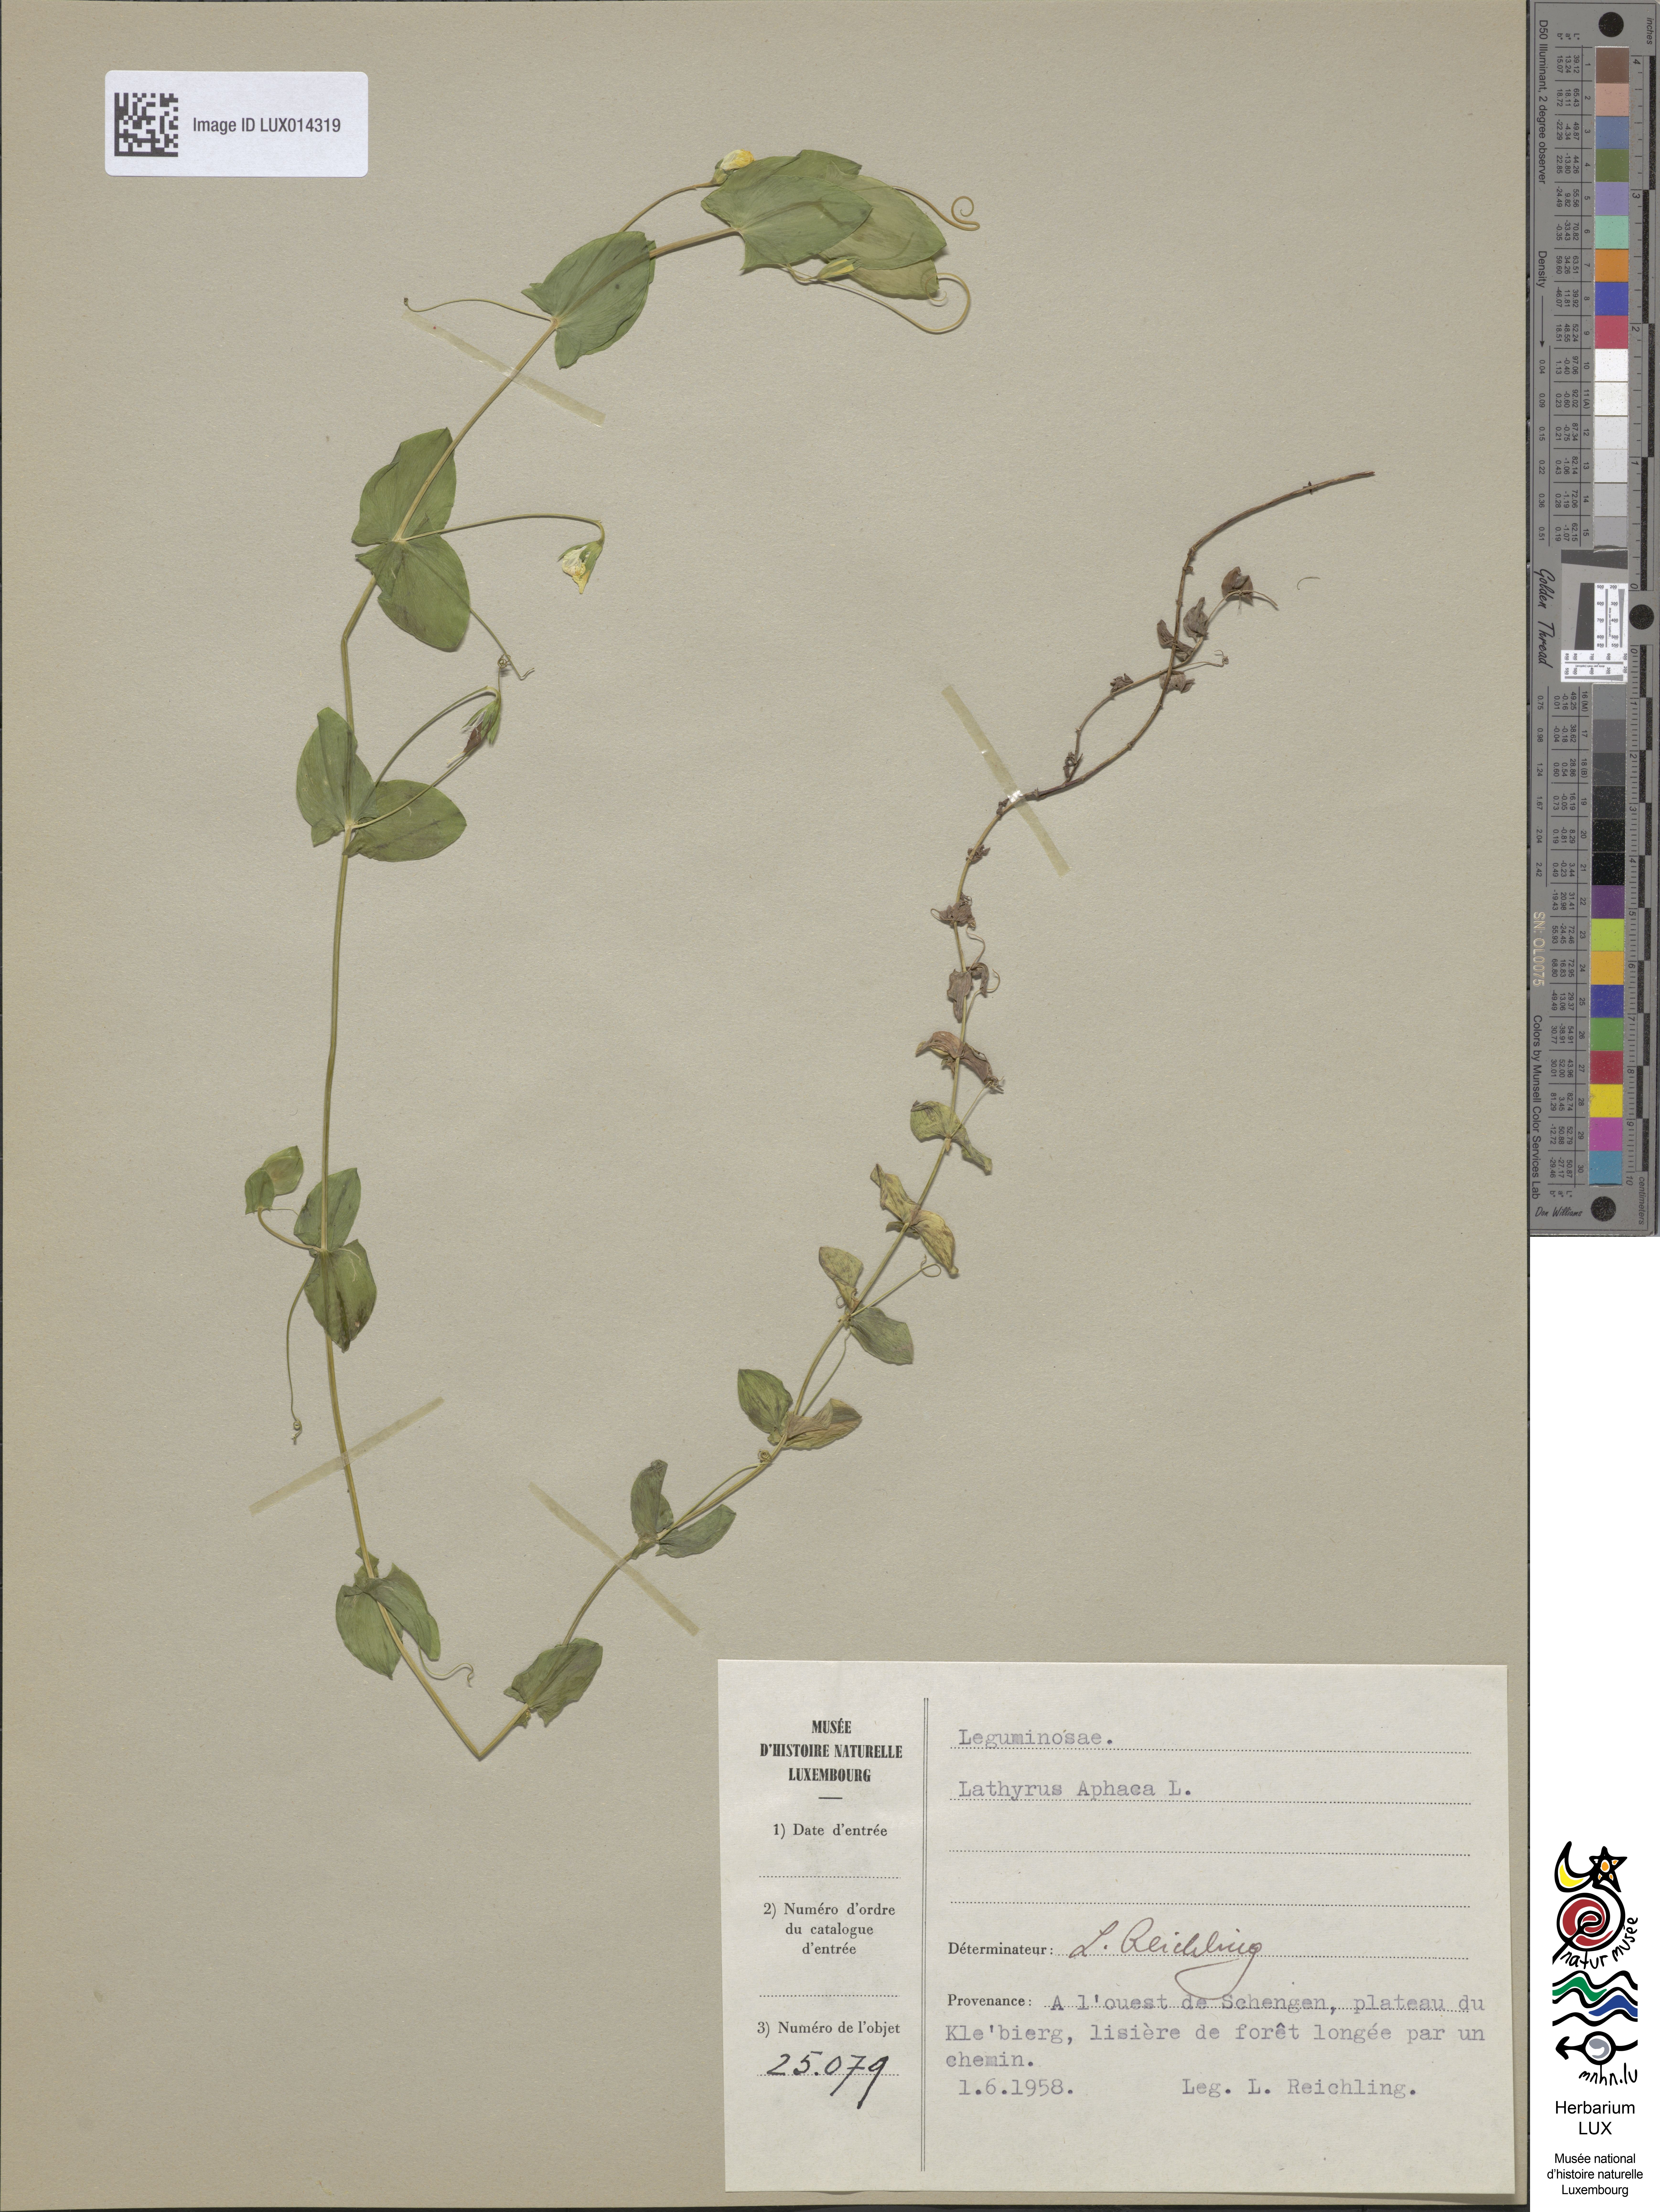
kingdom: Plantae
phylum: Tracheophyta
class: Magnoliopsida
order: Fabales
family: Fabaceae
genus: Lathyrus
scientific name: Lathyrus aphaca
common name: Yellow vetchling
